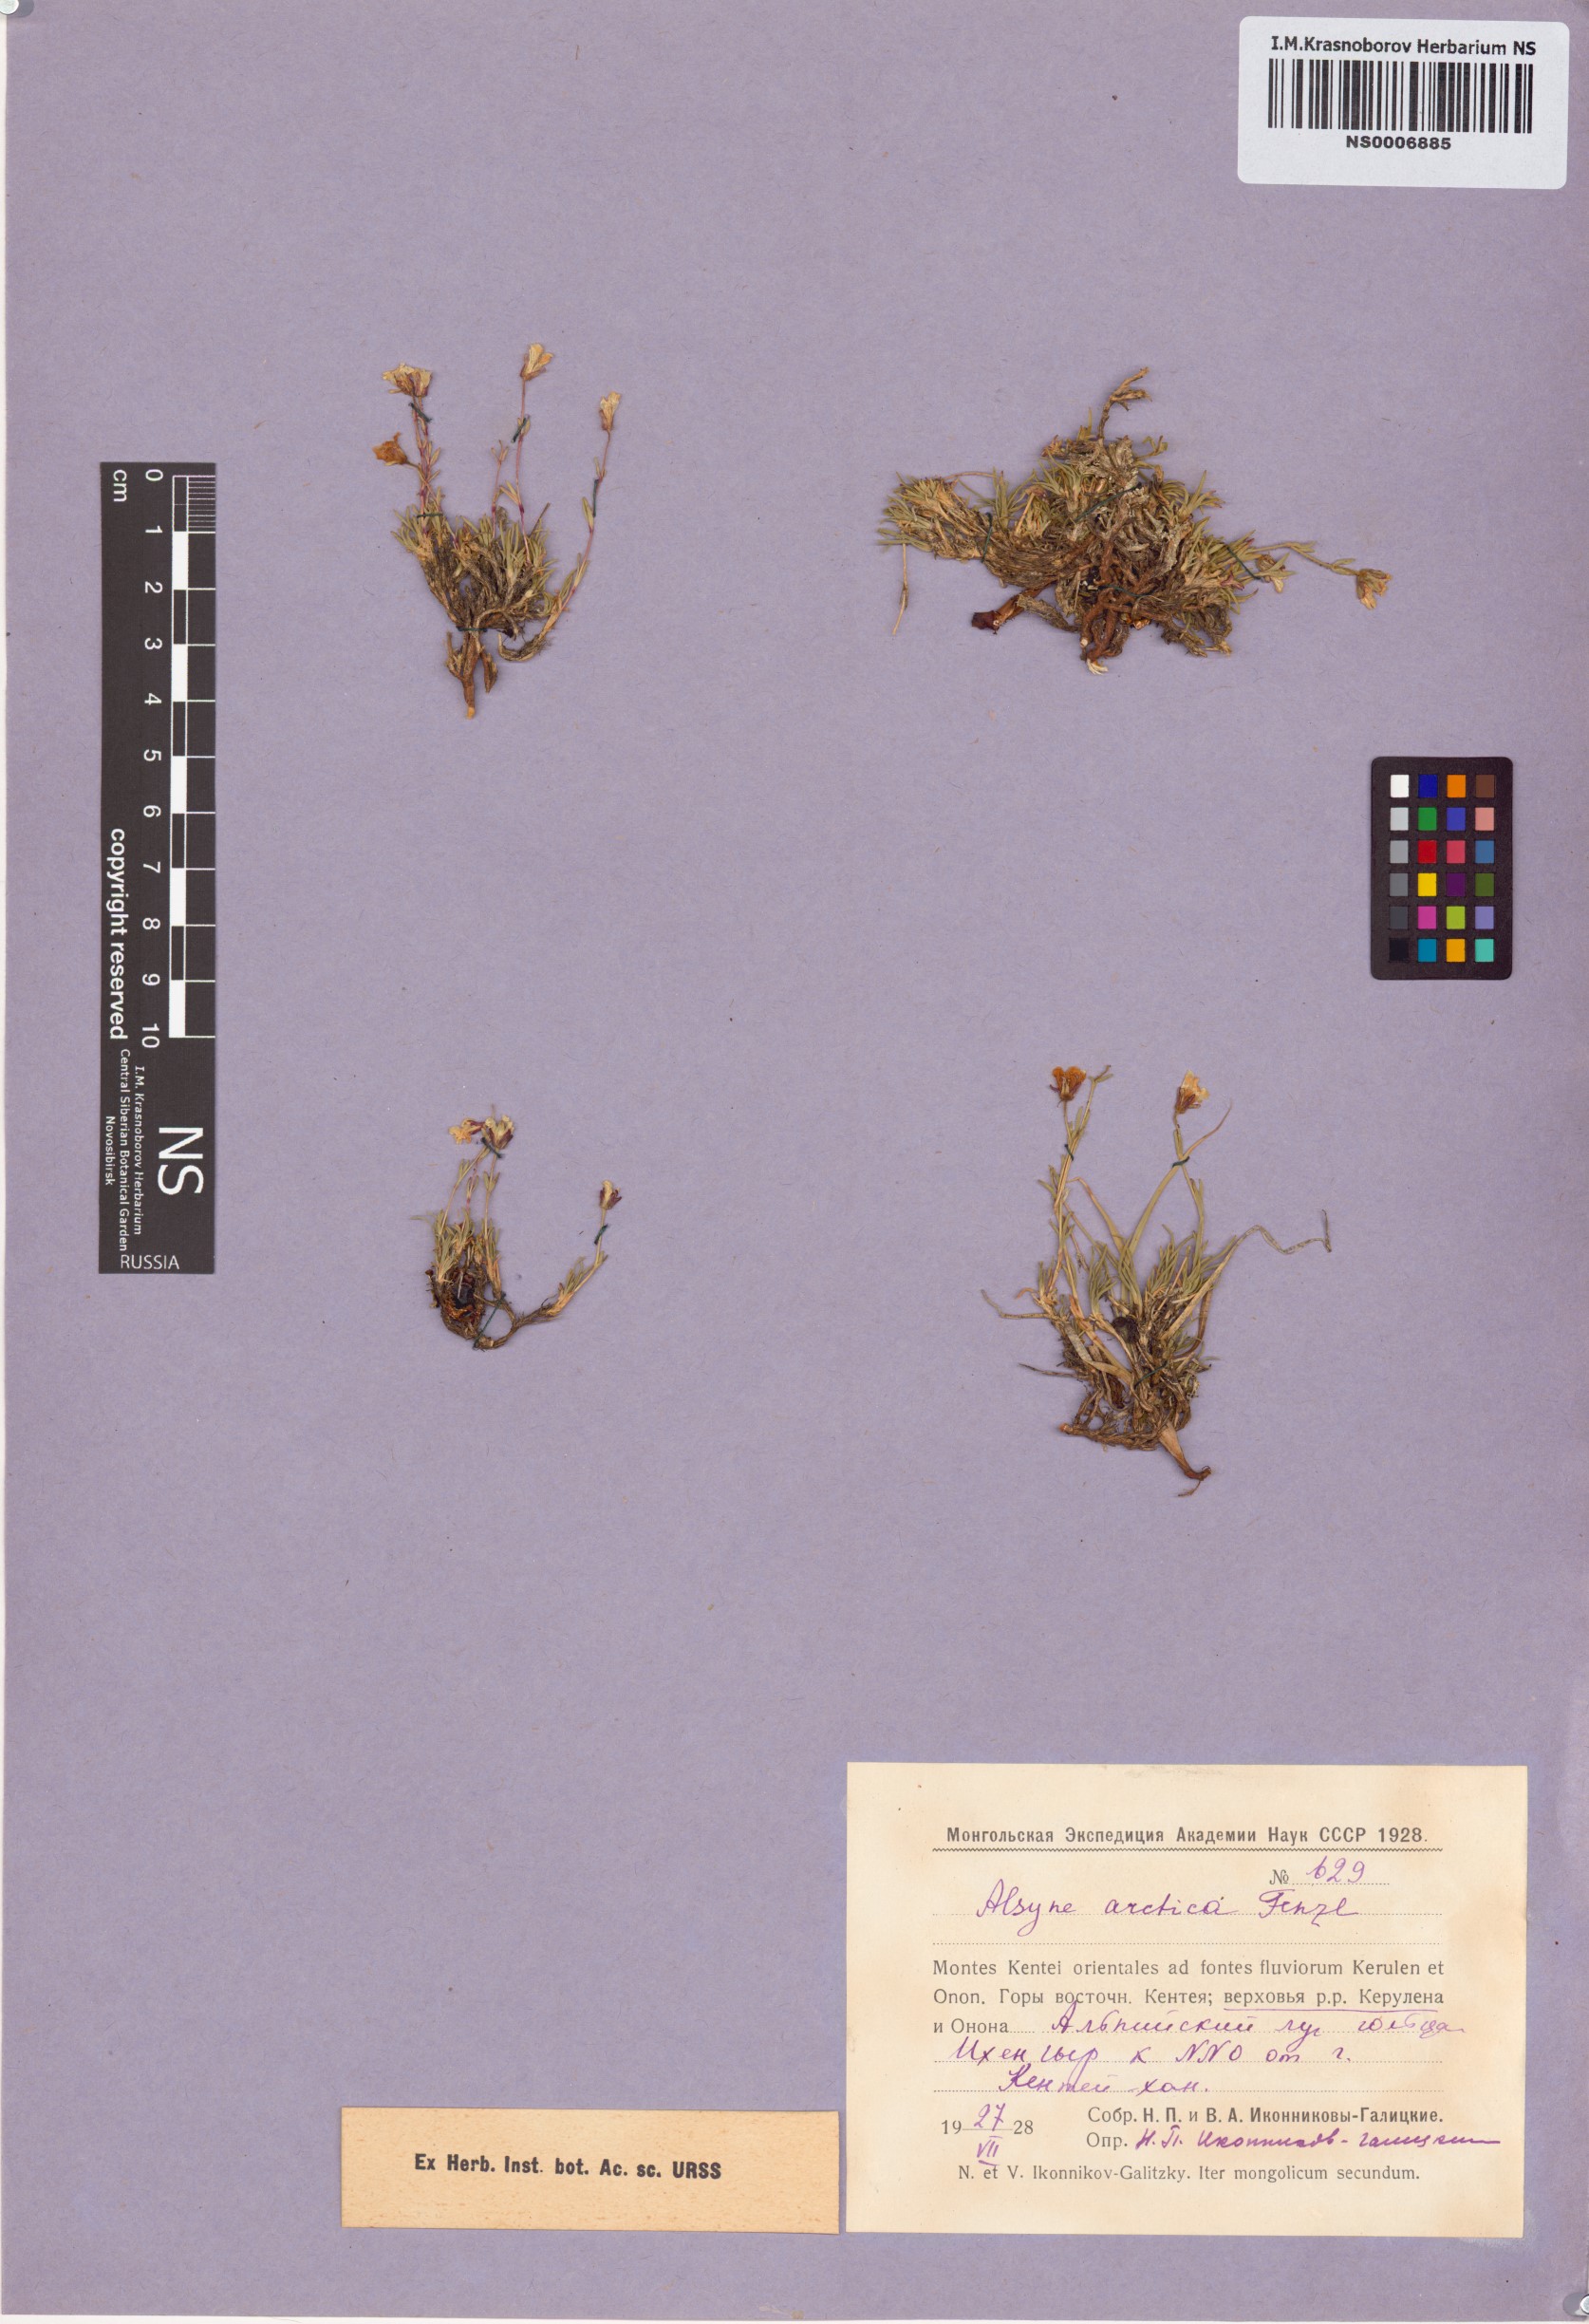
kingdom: Plantae
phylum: Tracheophyta
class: Magnoliopsida
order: Caryophyllales
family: Caryophyllaceae
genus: Cherleria
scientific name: Cherleria arctica
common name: Arctic sandwort
